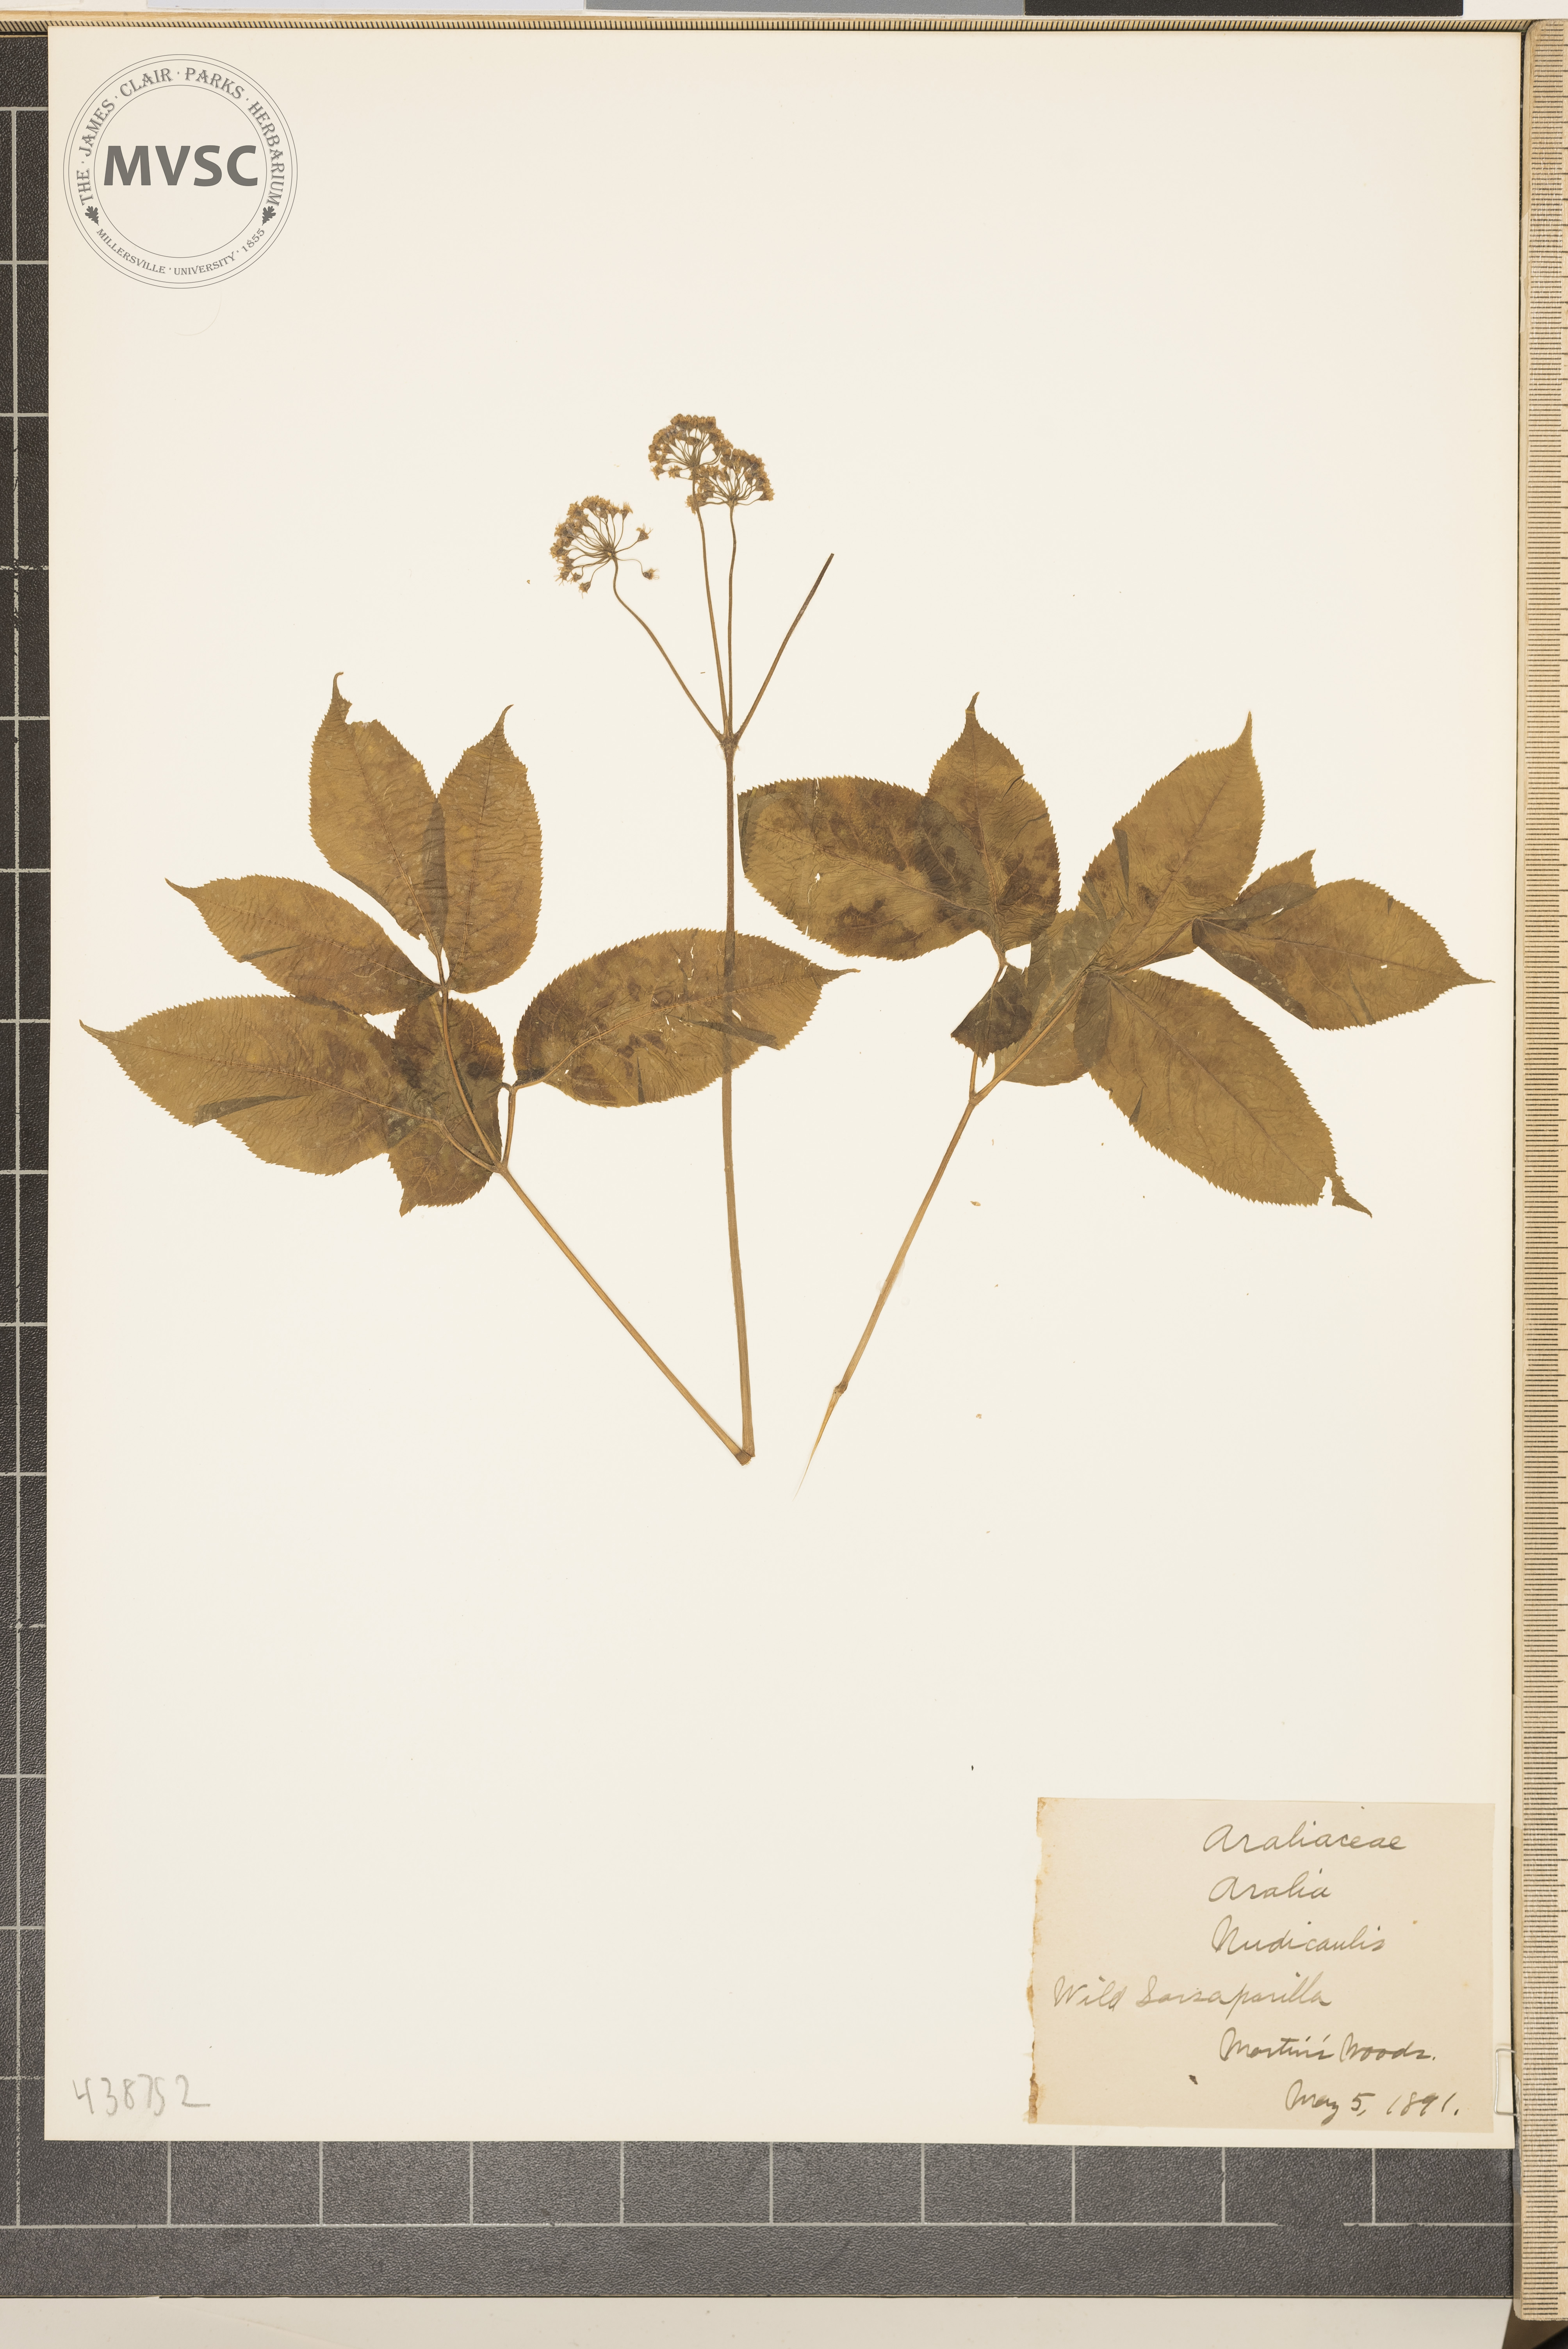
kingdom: Plantae
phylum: Tracheophyta
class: Magnoliopsida
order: Apiales
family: Araliaceae
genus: Aralia
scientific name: Aralia nudicaulis
